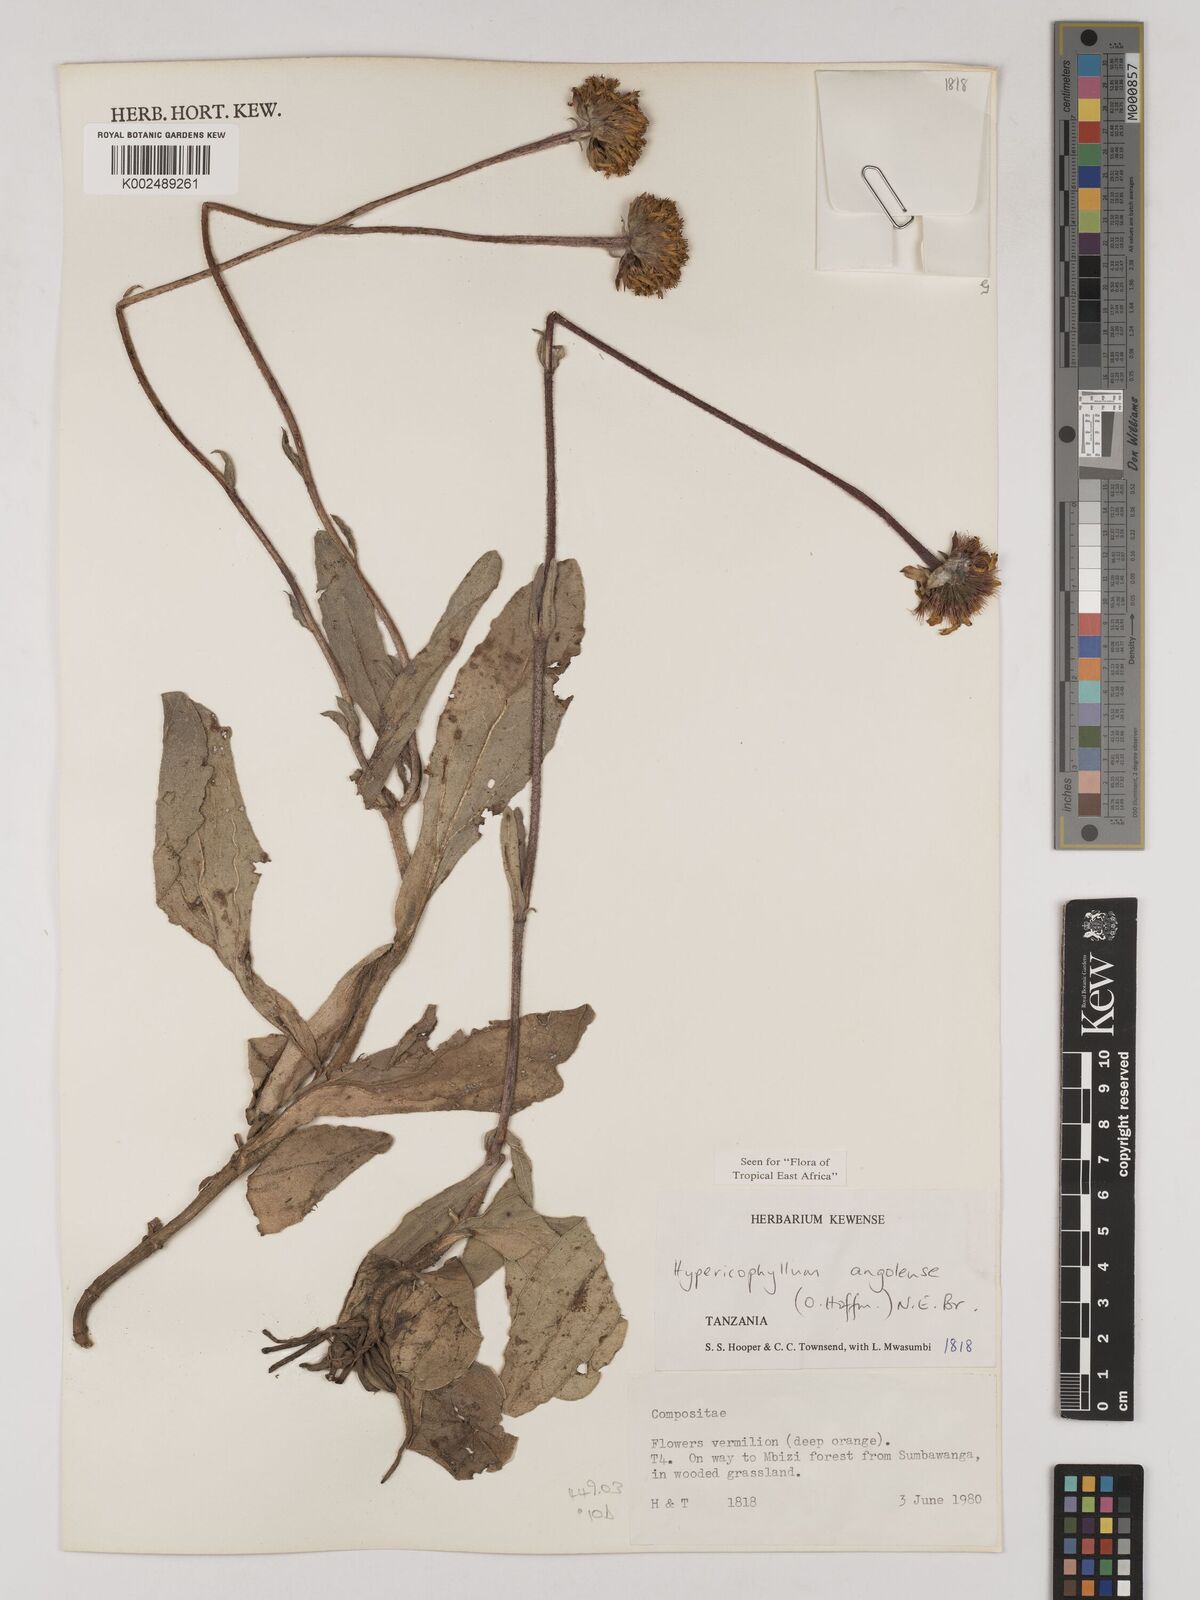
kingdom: Plantae
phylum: Tracheophyta
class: Magnoliopsida
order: Asterales
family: Asteraceae
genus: Hypericophyllum
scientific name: Hypericophyllum angolense
